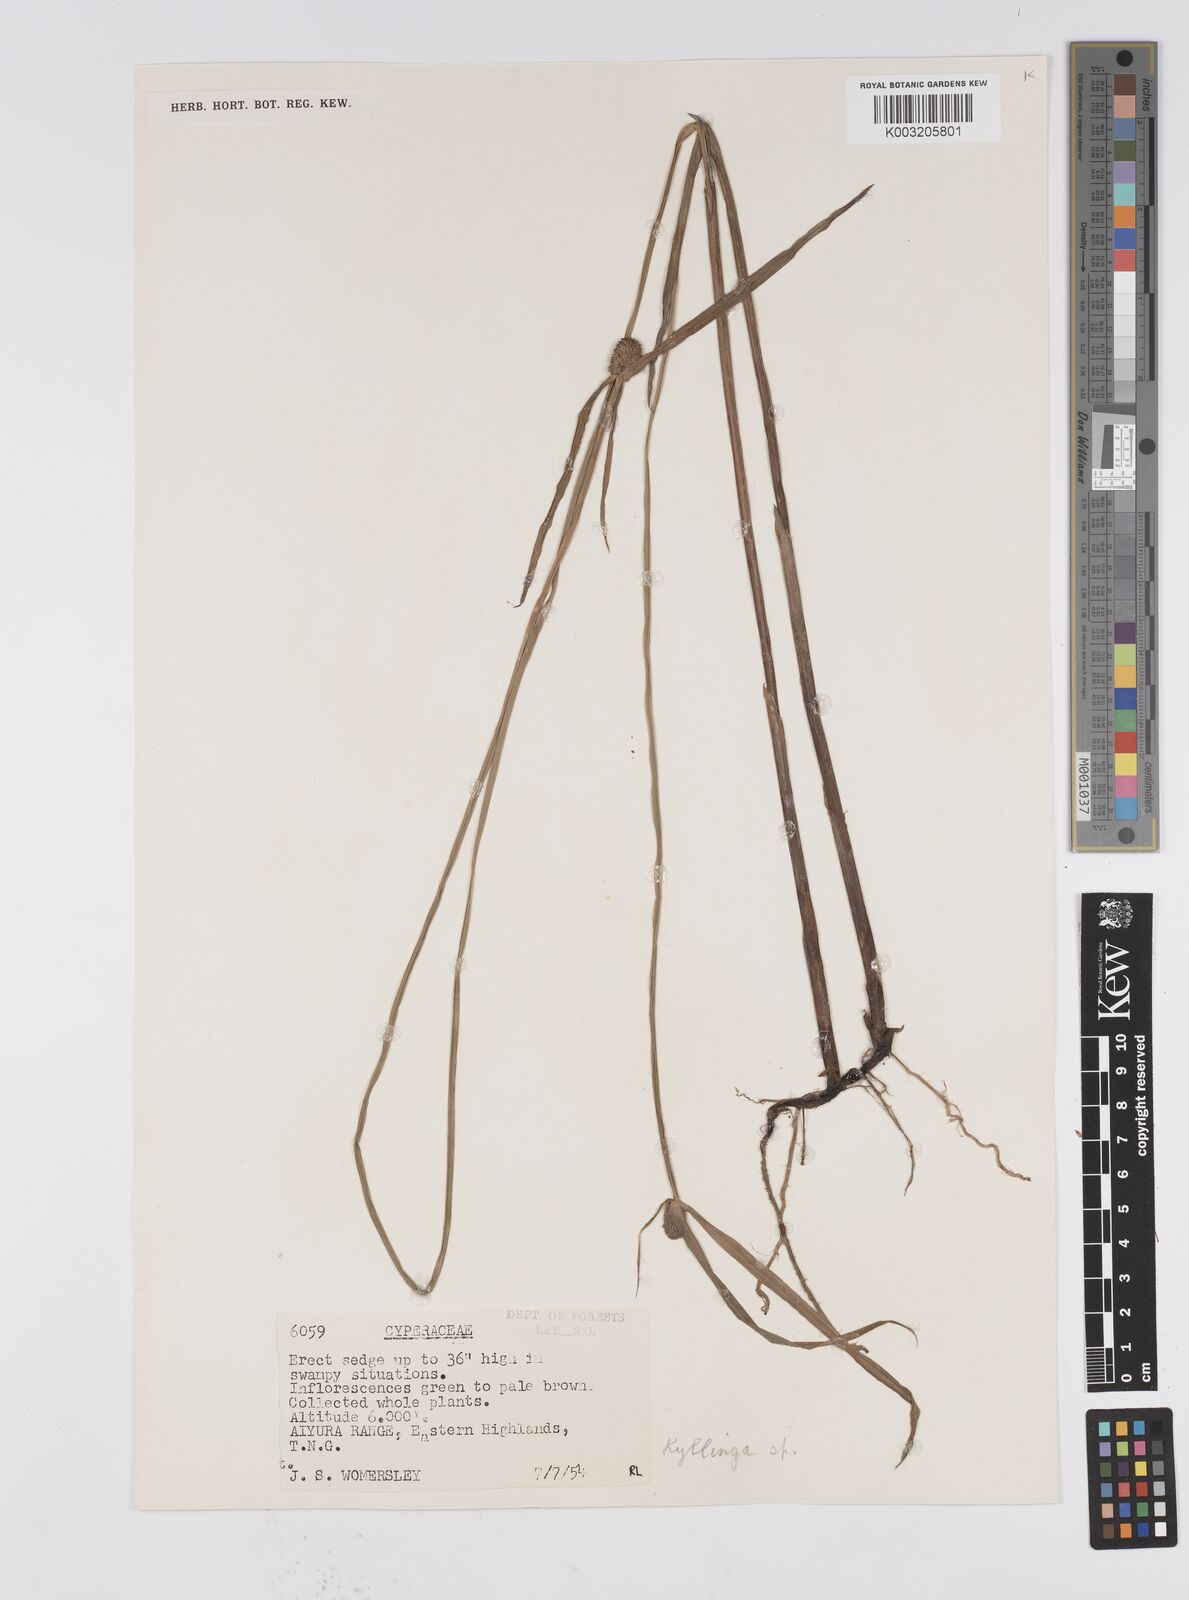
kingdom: Plantae
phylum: Tracheophyta
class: Liliopsida
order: Poales
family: Cyperaceae
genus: Cyperus
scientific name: Cyperus melanospermus
